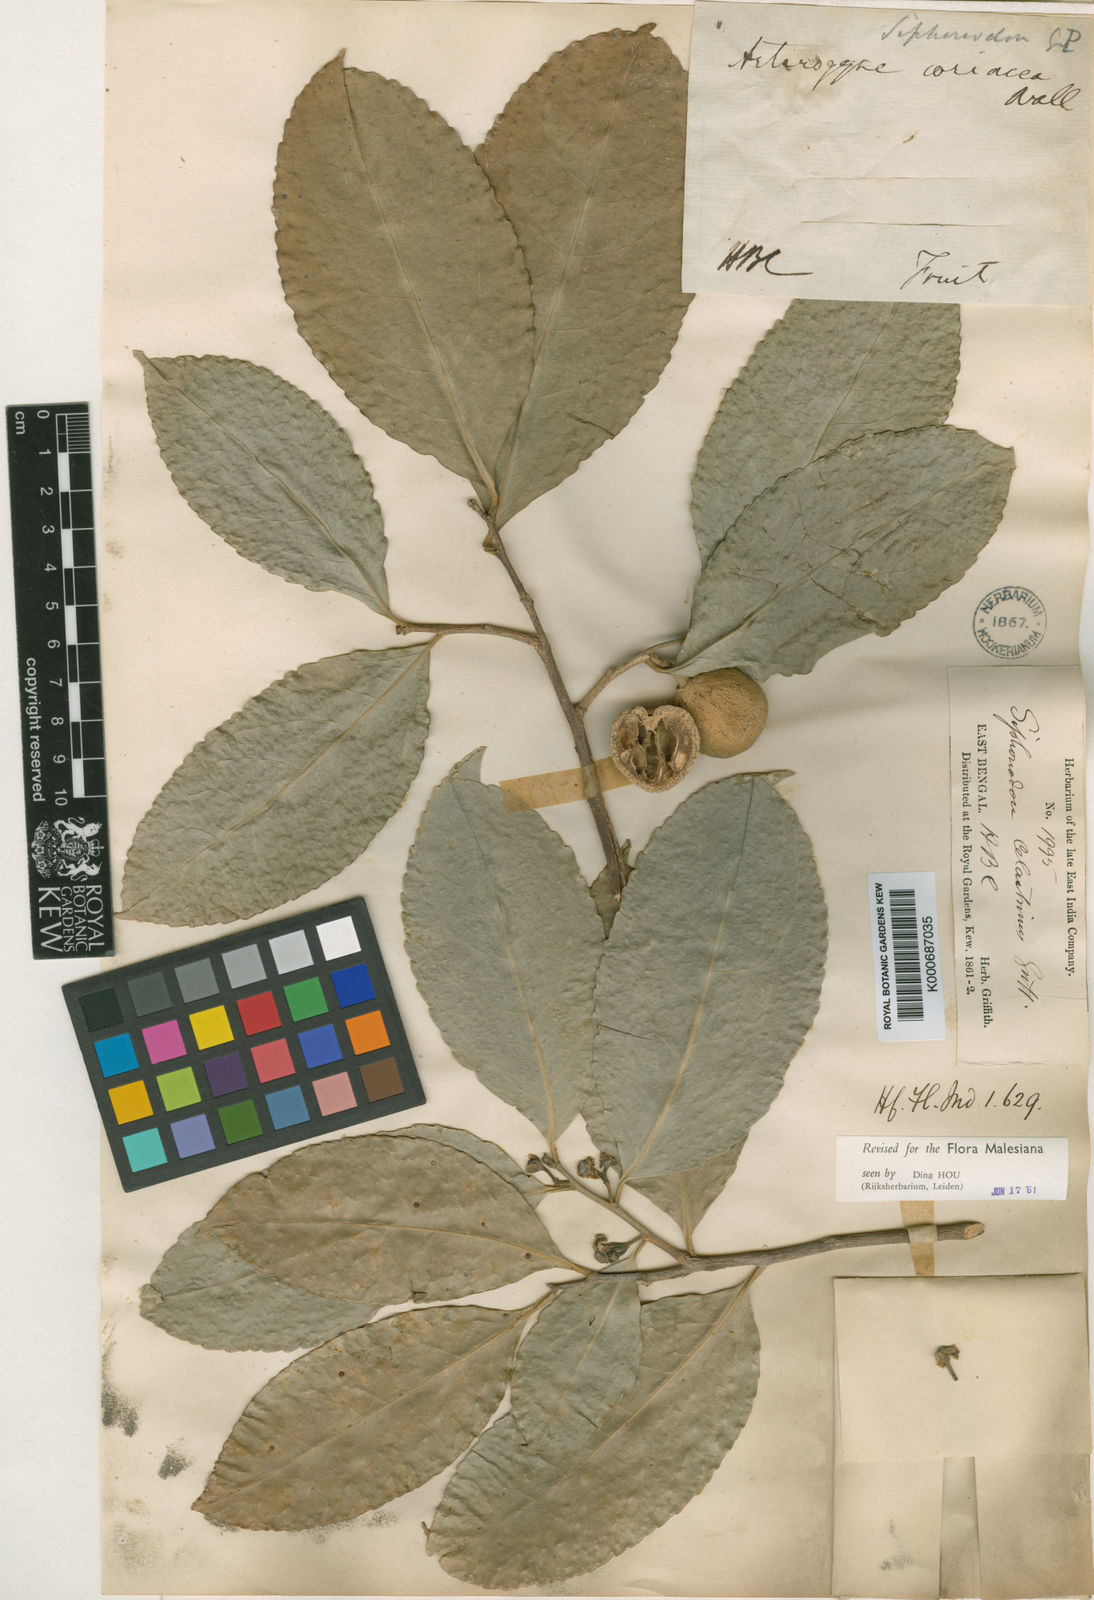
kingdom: Plantae
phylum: Tracheophyta
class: Magnoliopsida
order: Celastrales
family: Celastraceae
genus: Siphonodon
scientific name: Siphonodon celastrineus
